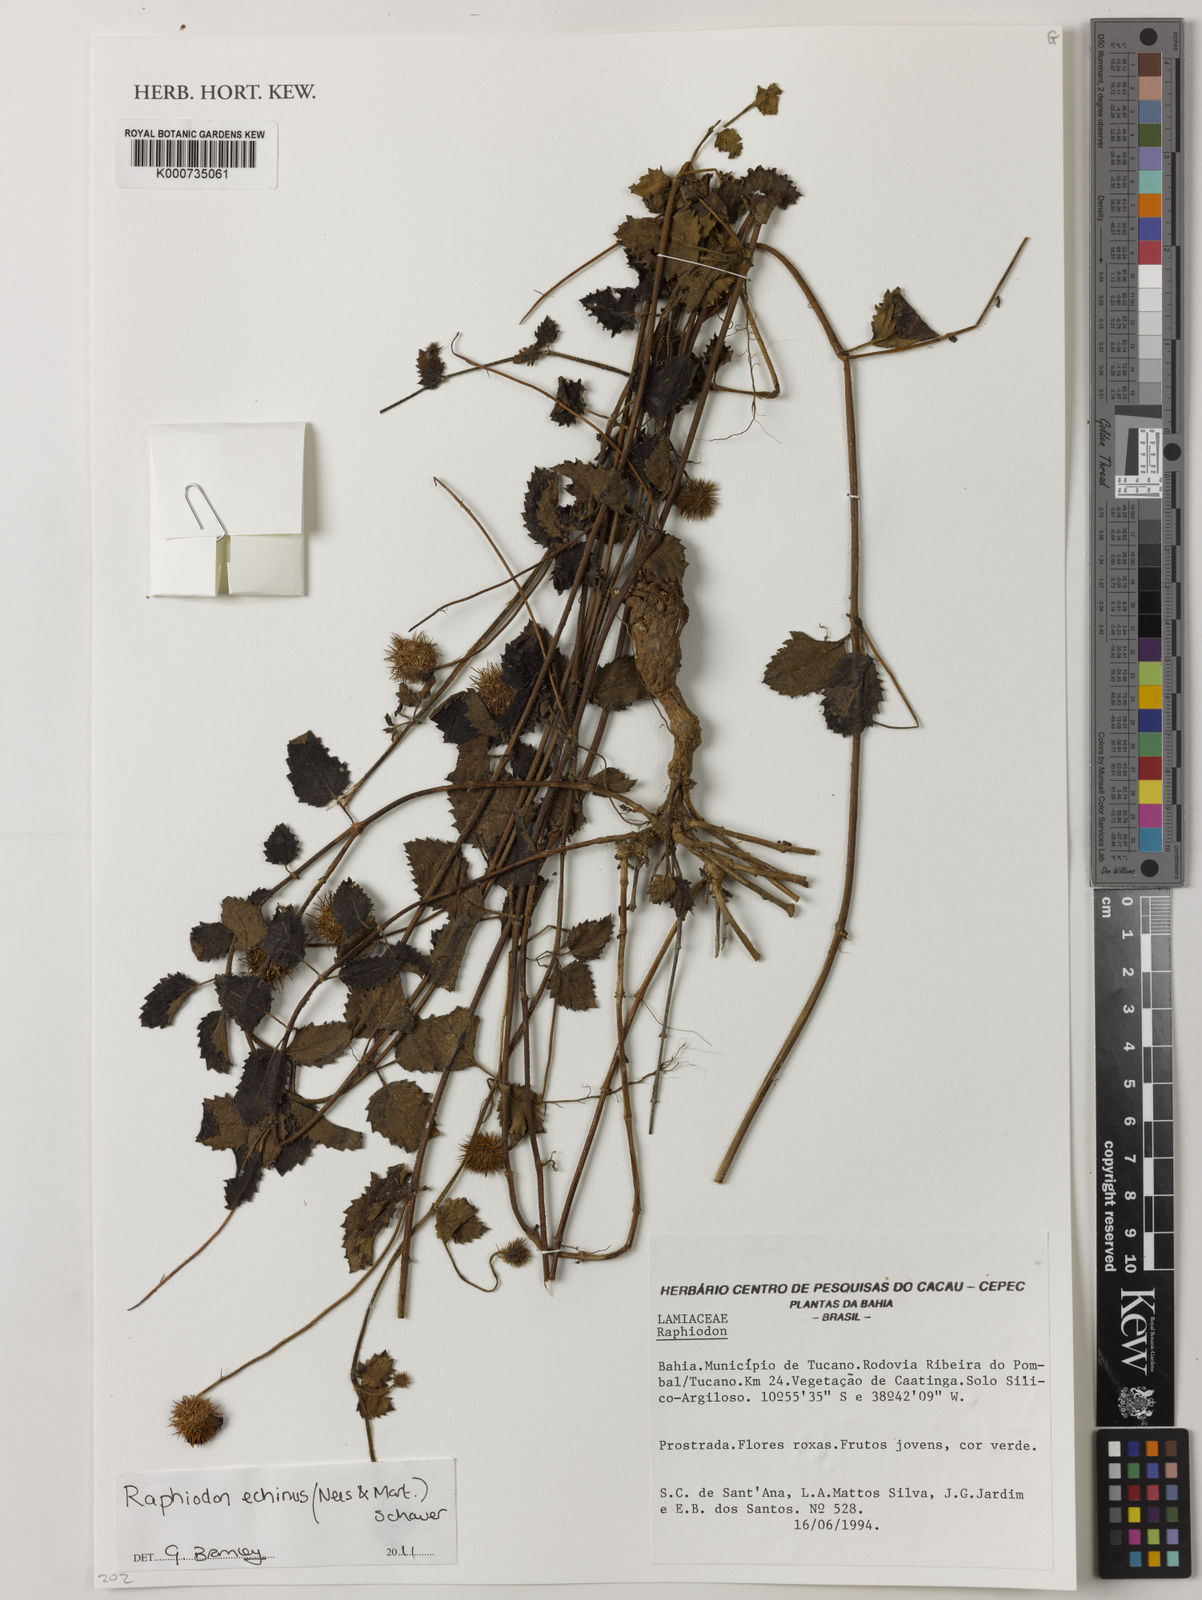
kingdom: Plantae
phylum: Tracheophyta
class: Magnoliopsida
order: Lamiales
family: Lamiaceae
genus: Rhaphiodon
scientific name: Rhaphiodon
